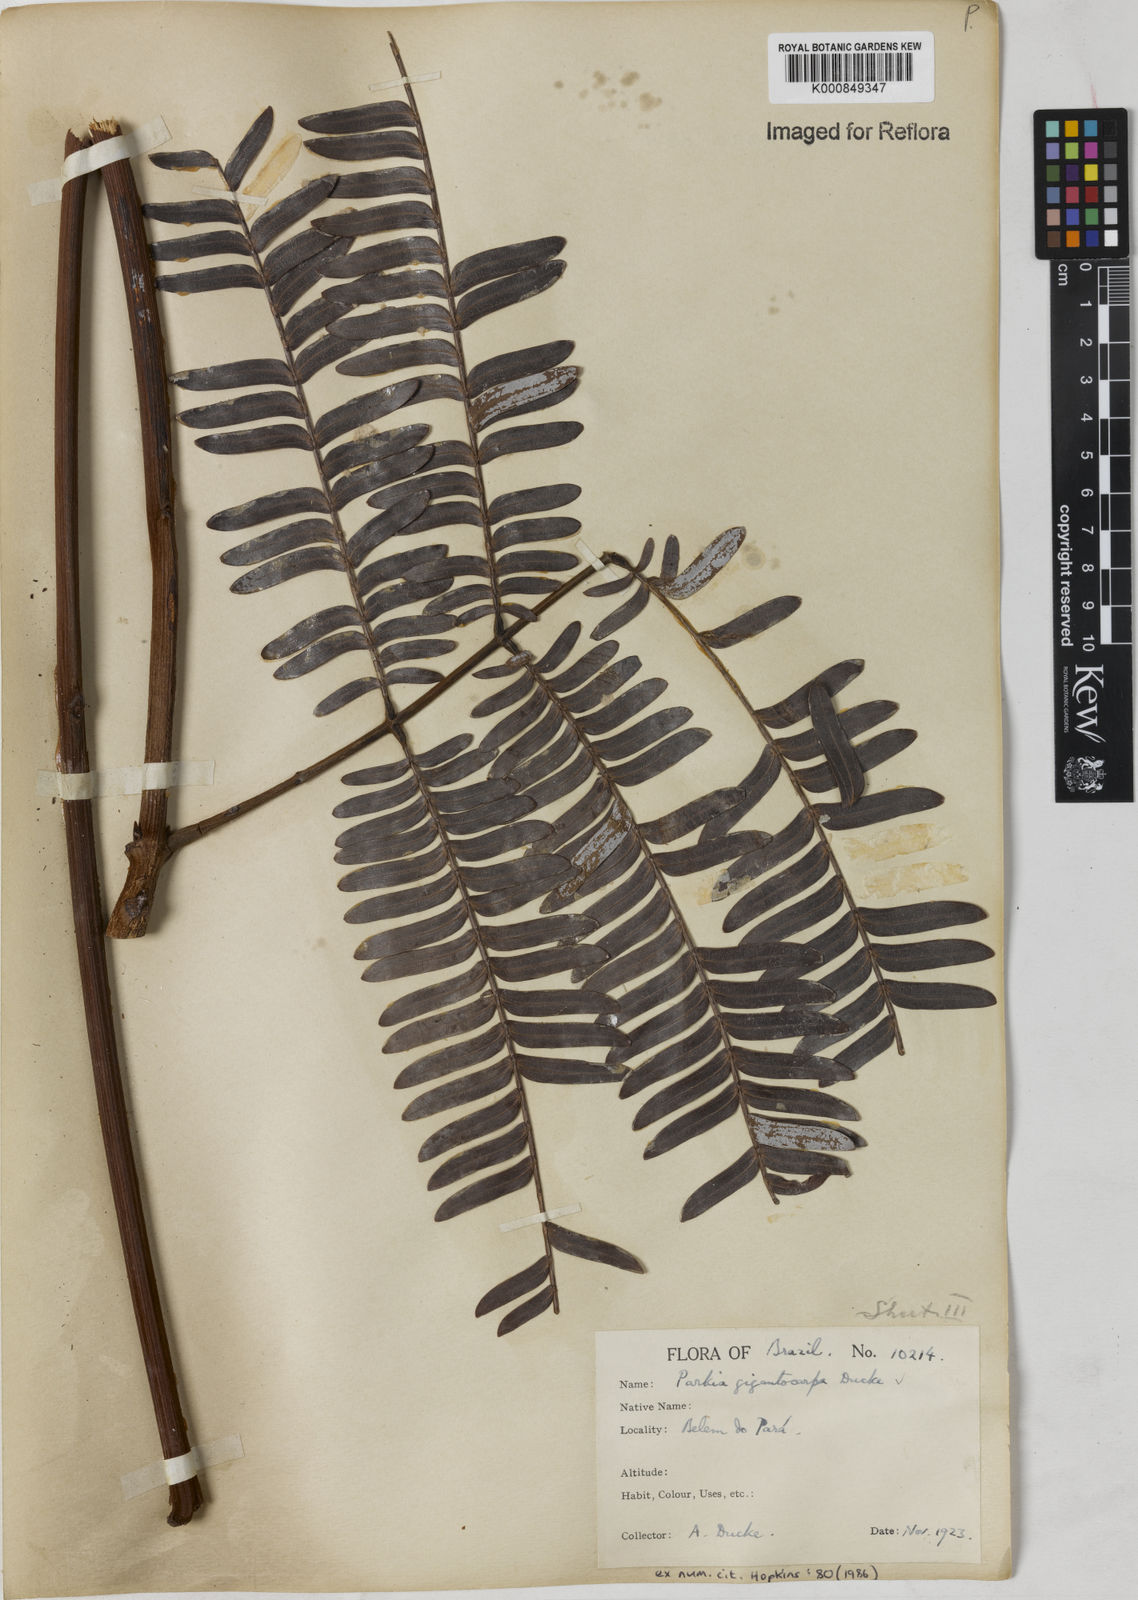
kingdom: Plantae
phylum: Tracheophyta
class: Magnoliopsida
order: Fabales
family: Fabaceae
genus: Parkia
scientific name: Parkia gigantocarpa
